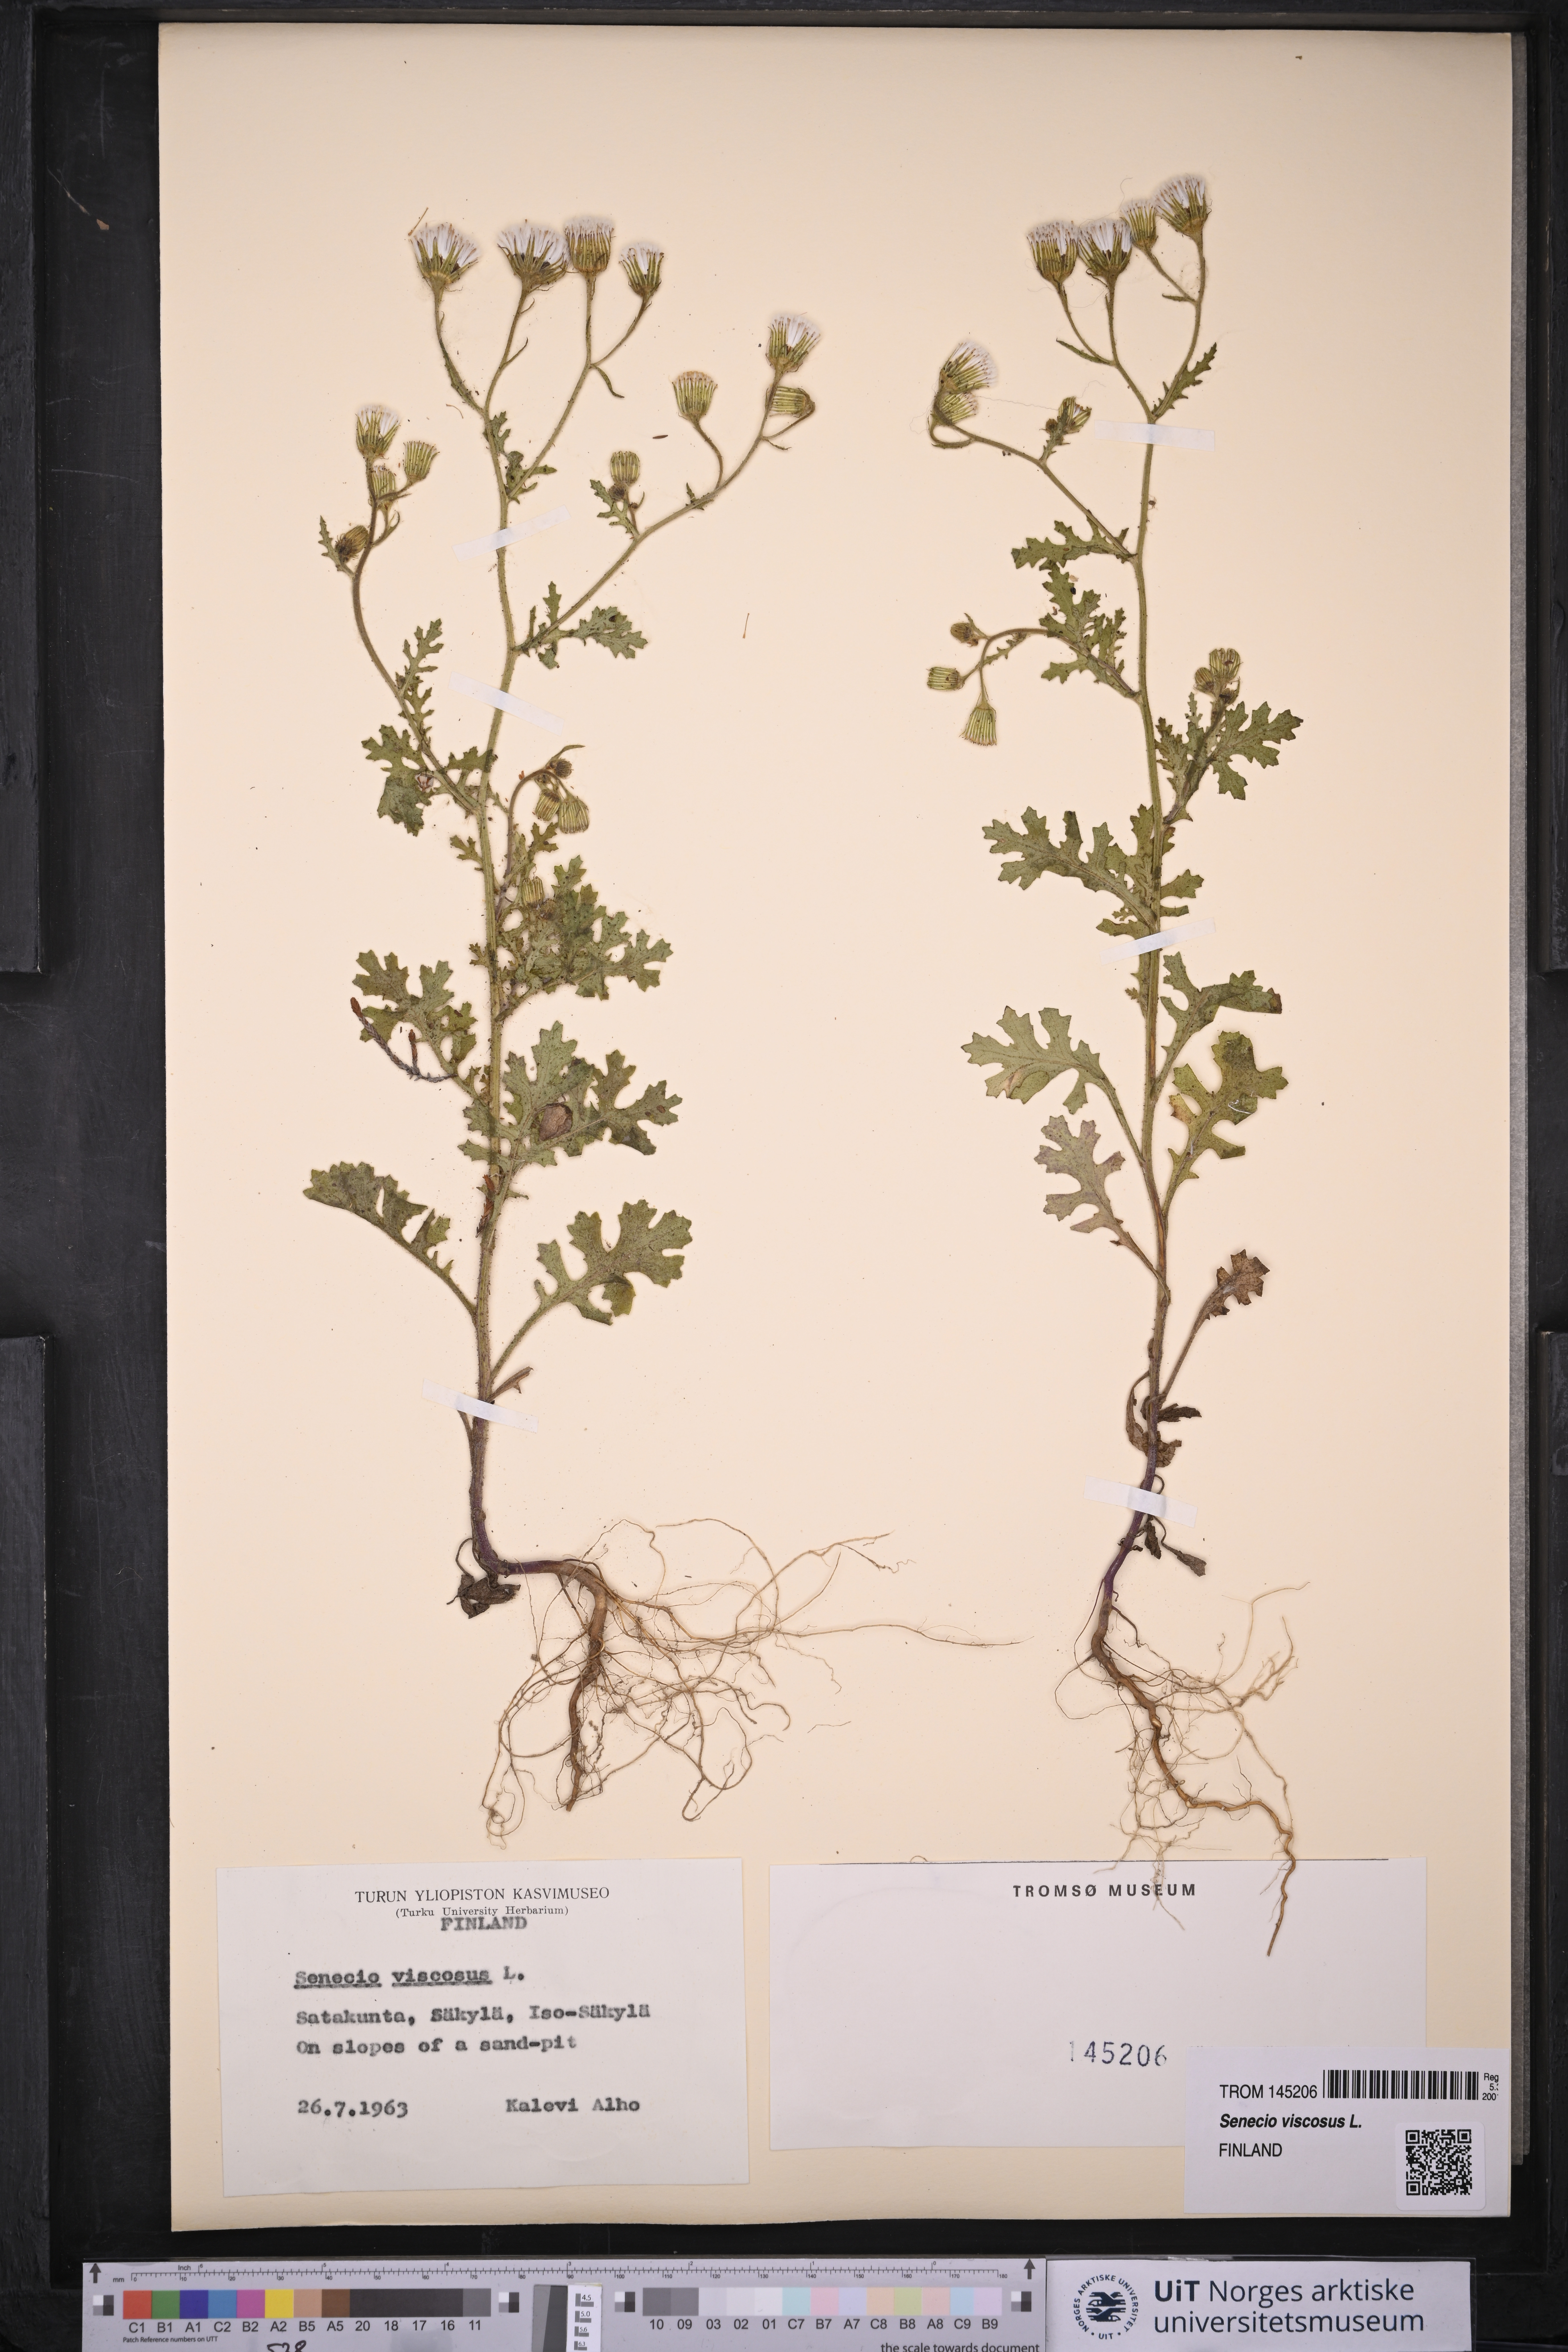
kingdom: Plantae
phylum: Tracheophyta
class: Magnoliopsida
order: Asterales
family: Asteraceae
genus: Senecio
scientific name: Senecio viscosus
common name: Sticky groundsel
